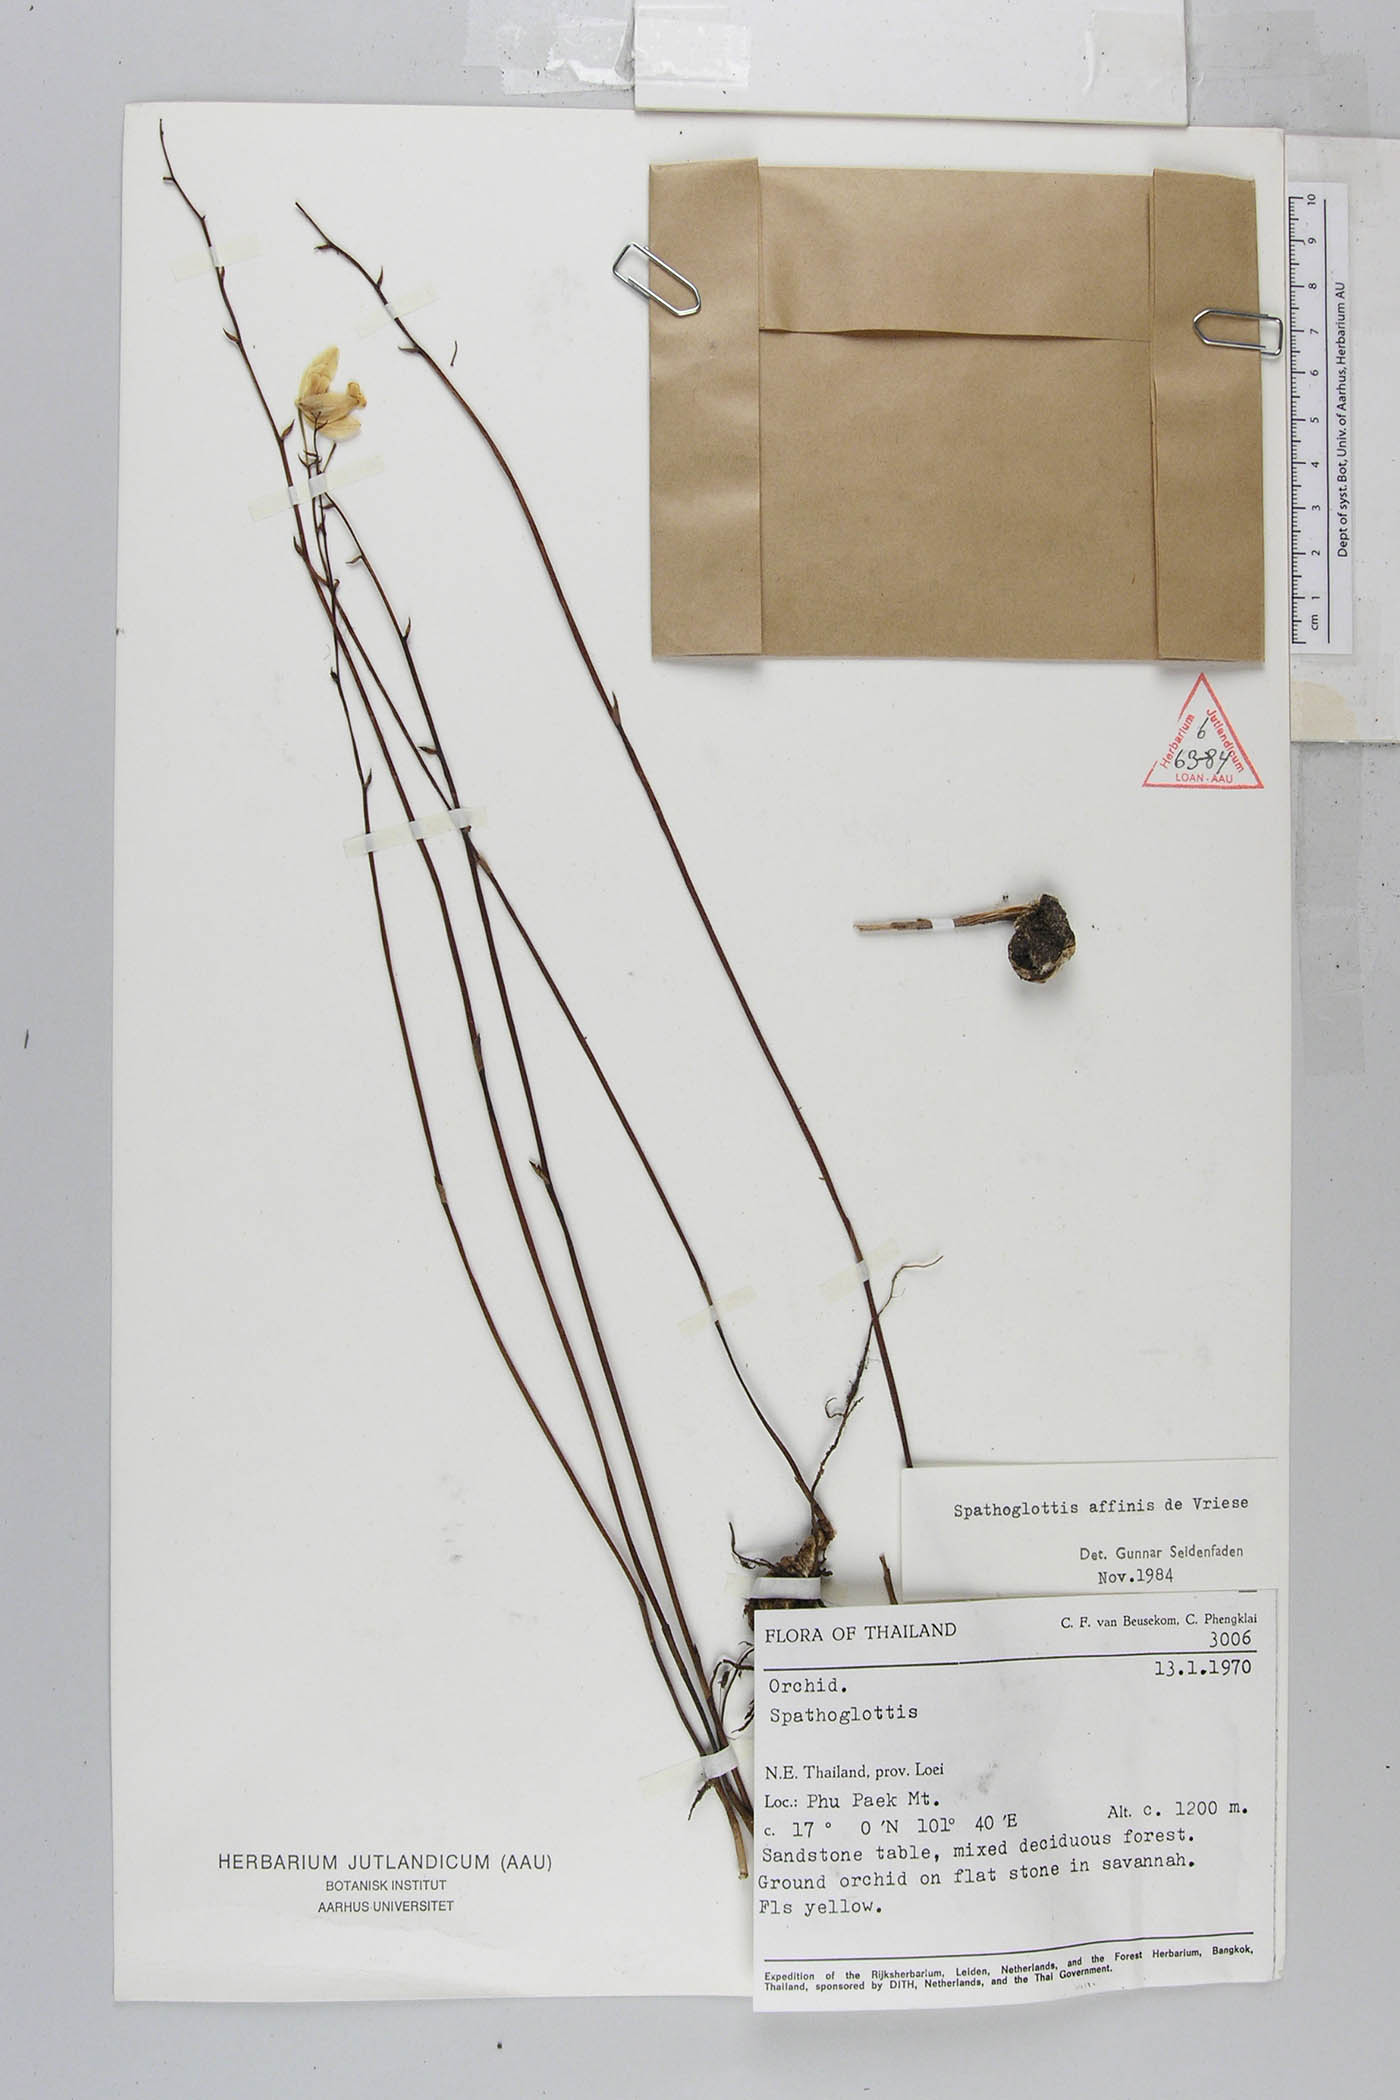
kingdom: Plantae
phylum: Tracheophyta
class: Liliopsida
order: Asparagales
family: Orchidaceae
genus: Spathoglottis
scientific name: Spathoglottis affinis
